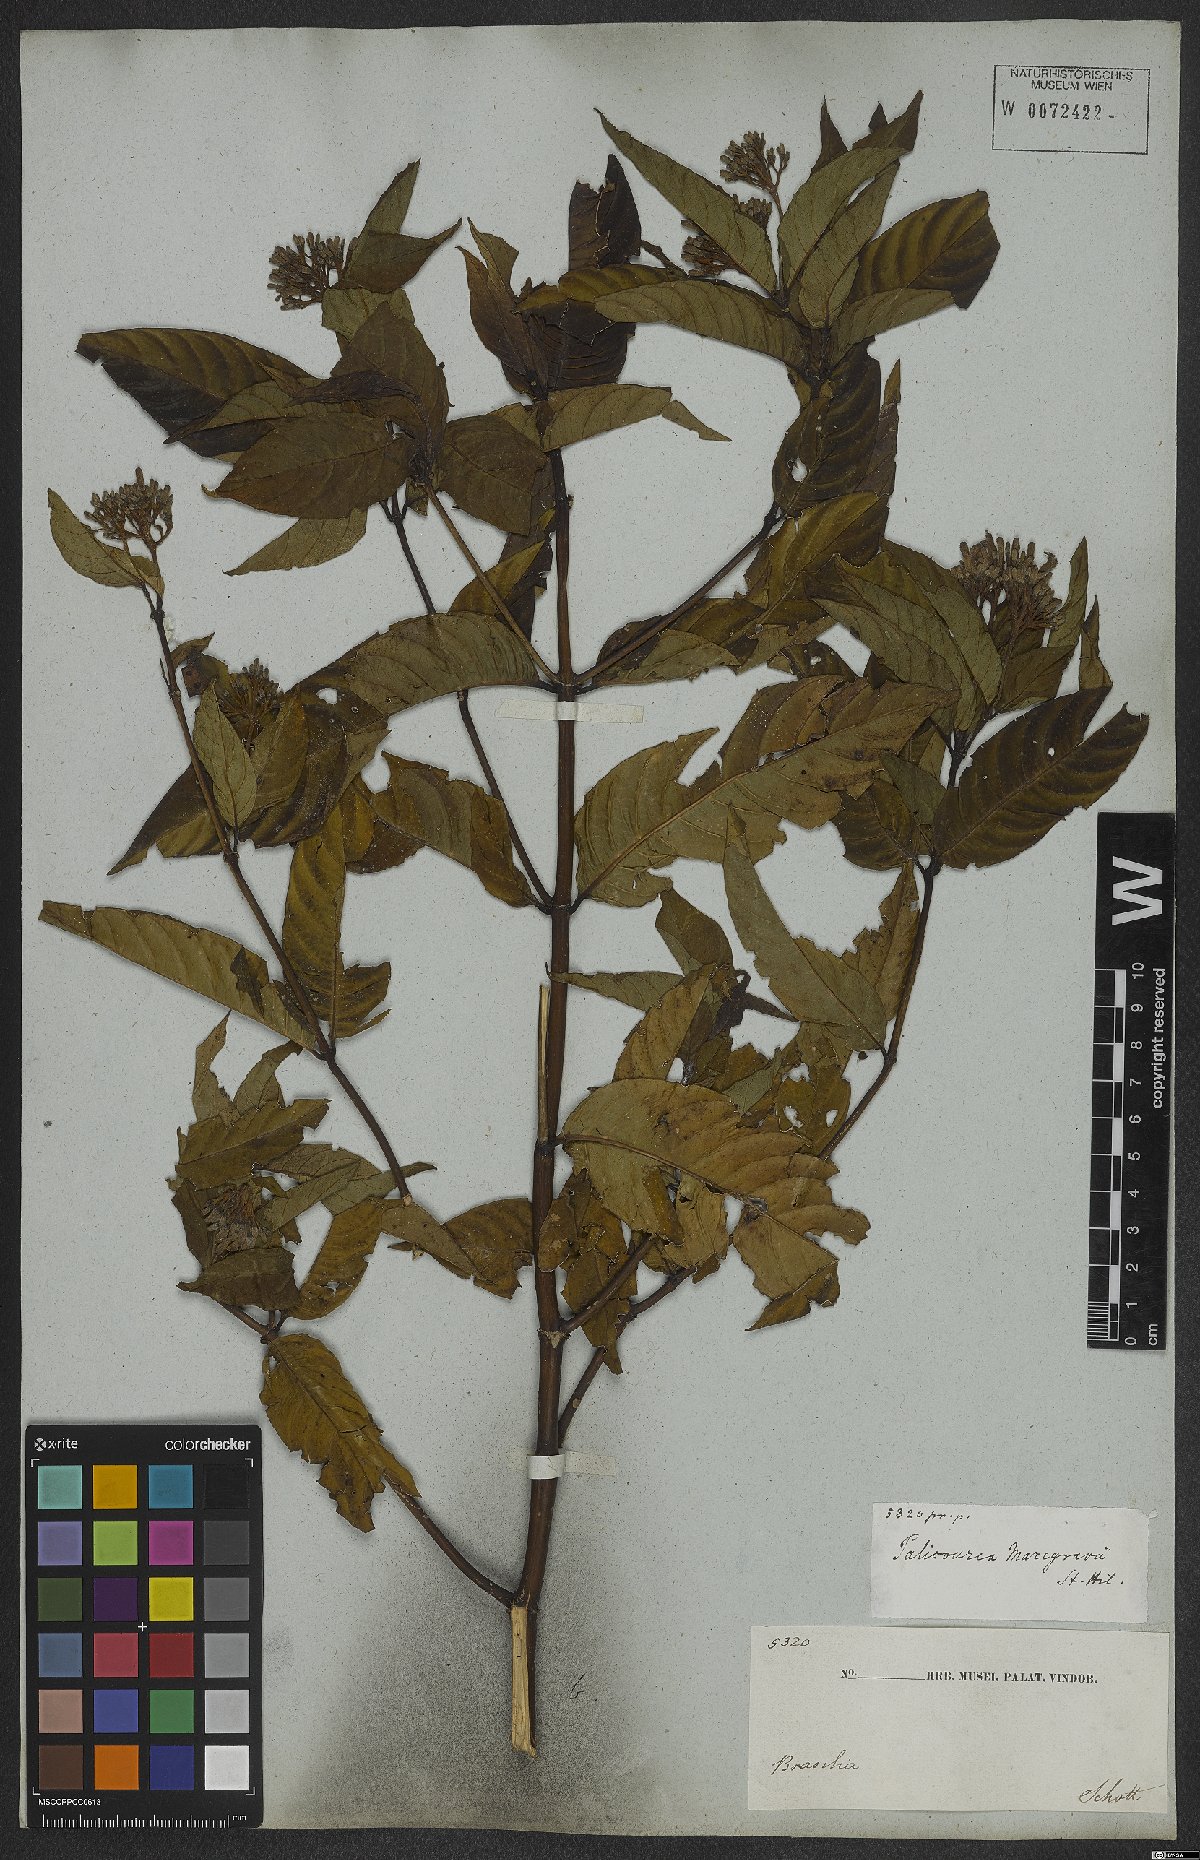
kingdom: Plantae
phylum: Tracheophyta
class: Magnoliopsida
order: Gentianales
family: Rubiaceae
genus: Palicourea
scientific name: Palicourea marcgravii
